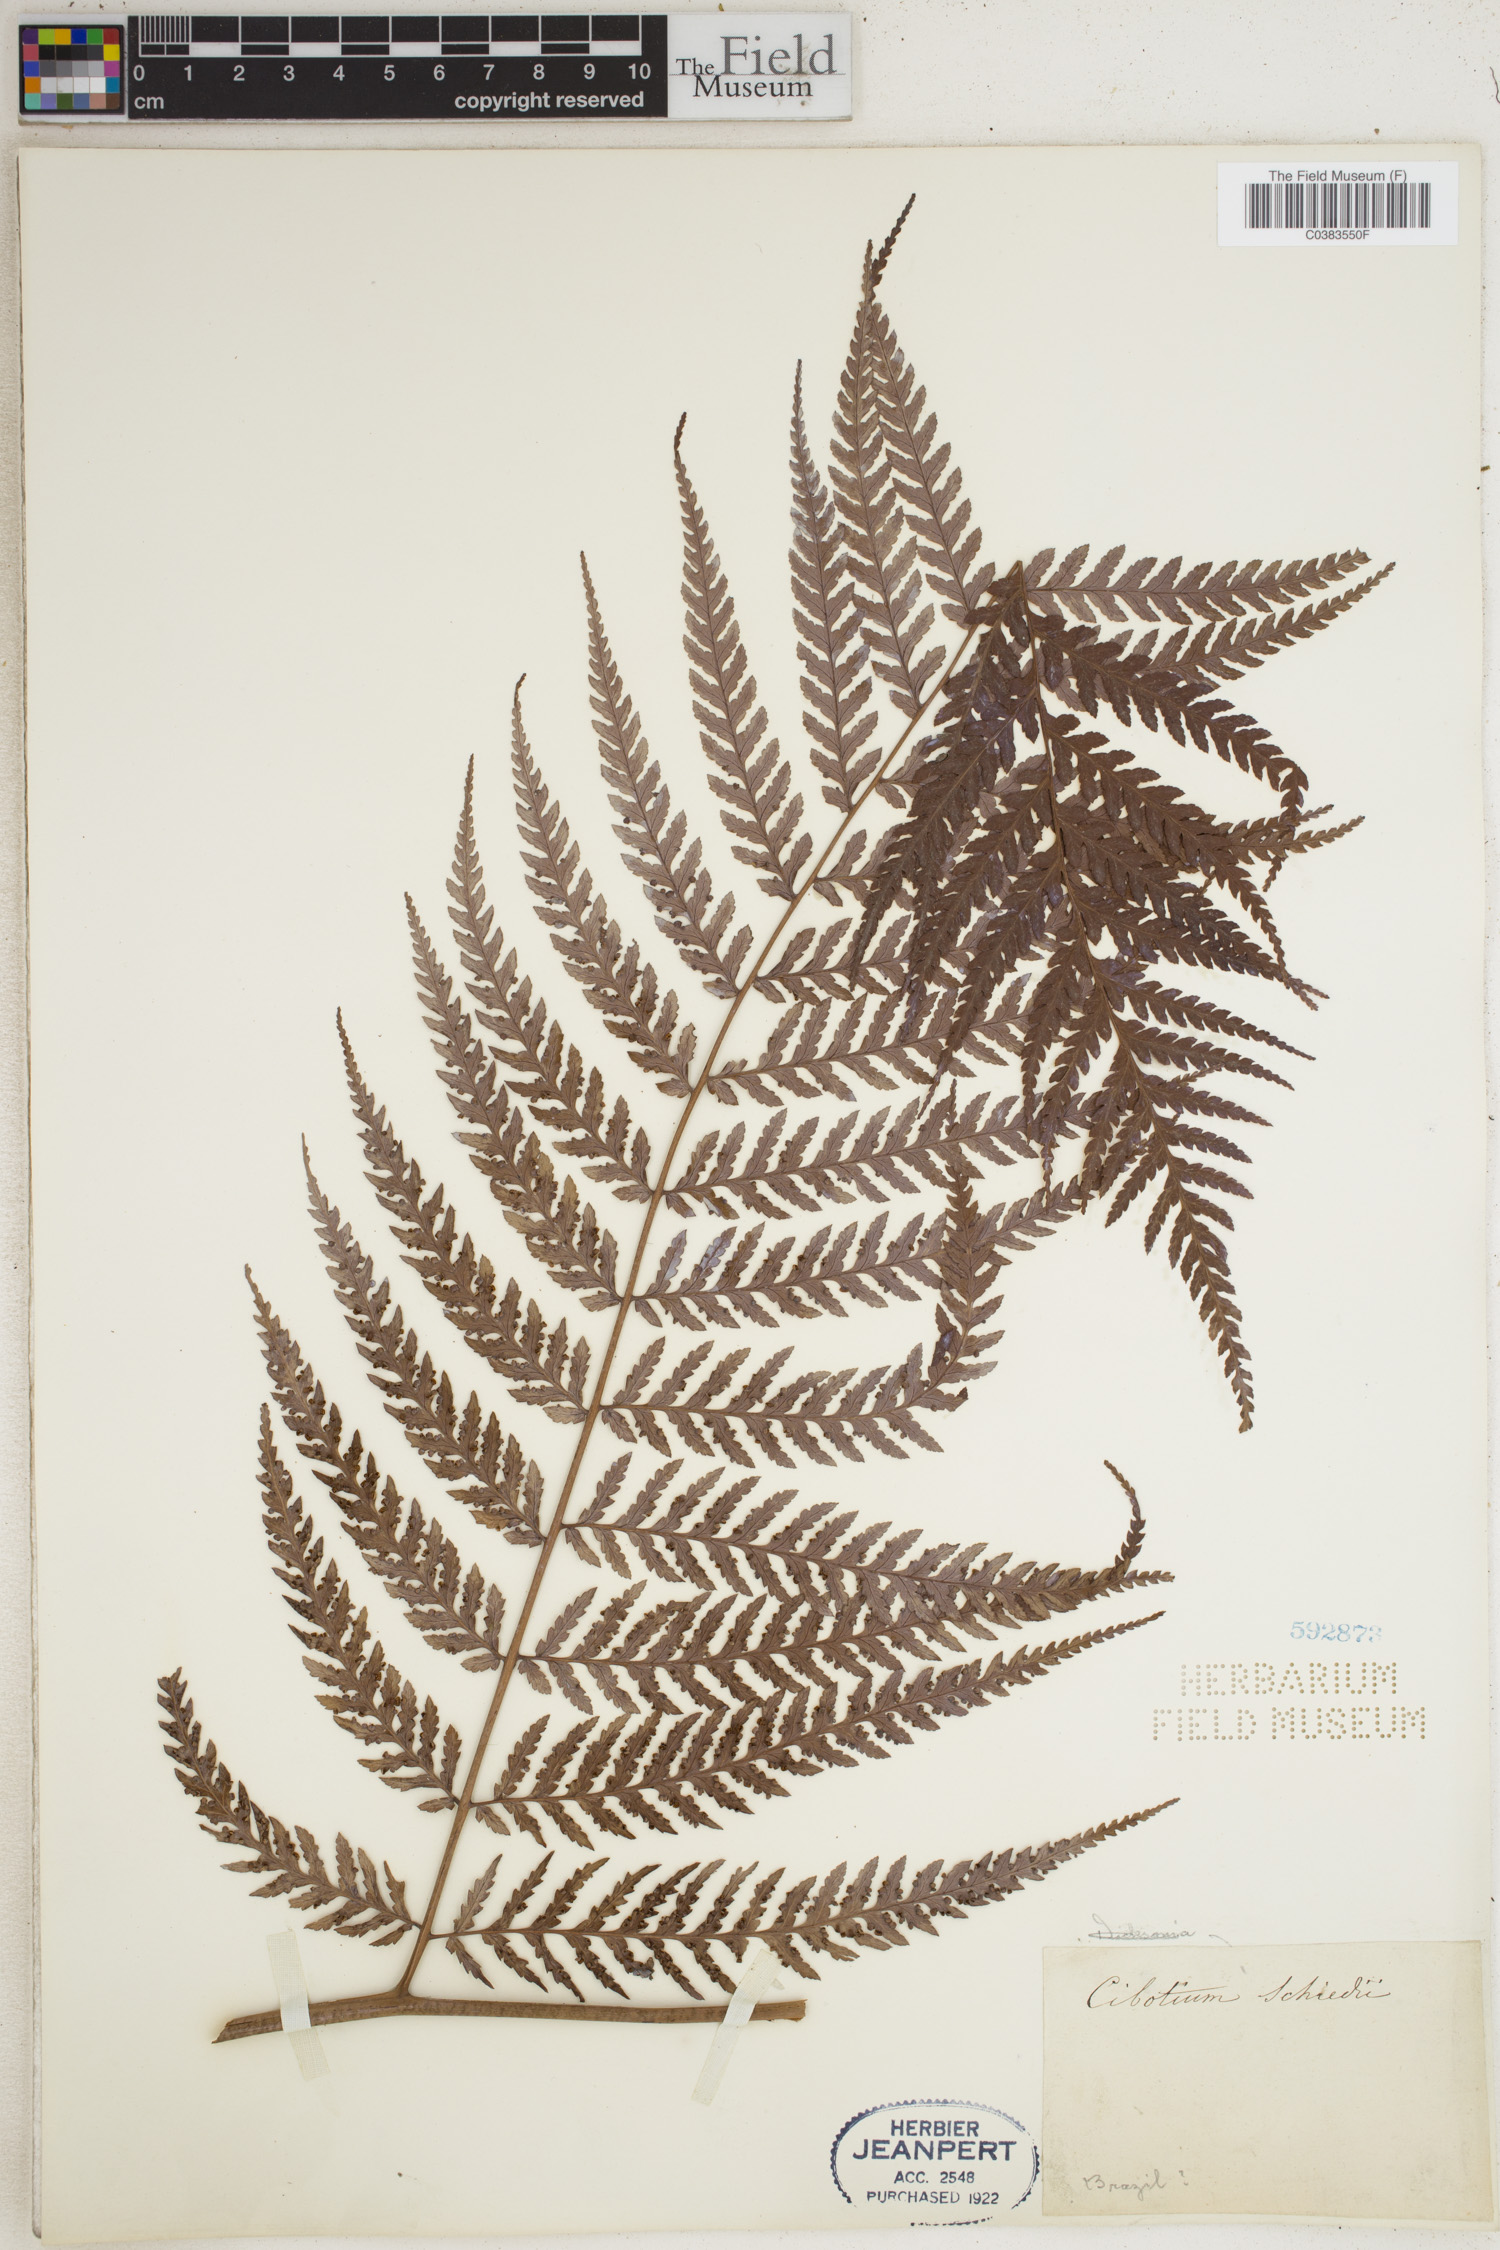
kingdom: Plantae
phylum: Tracheophyta
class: Polypodiopsida
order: Cyatheales
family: Cibotiaceae
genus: Cibotium
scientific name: Cibotium regale
